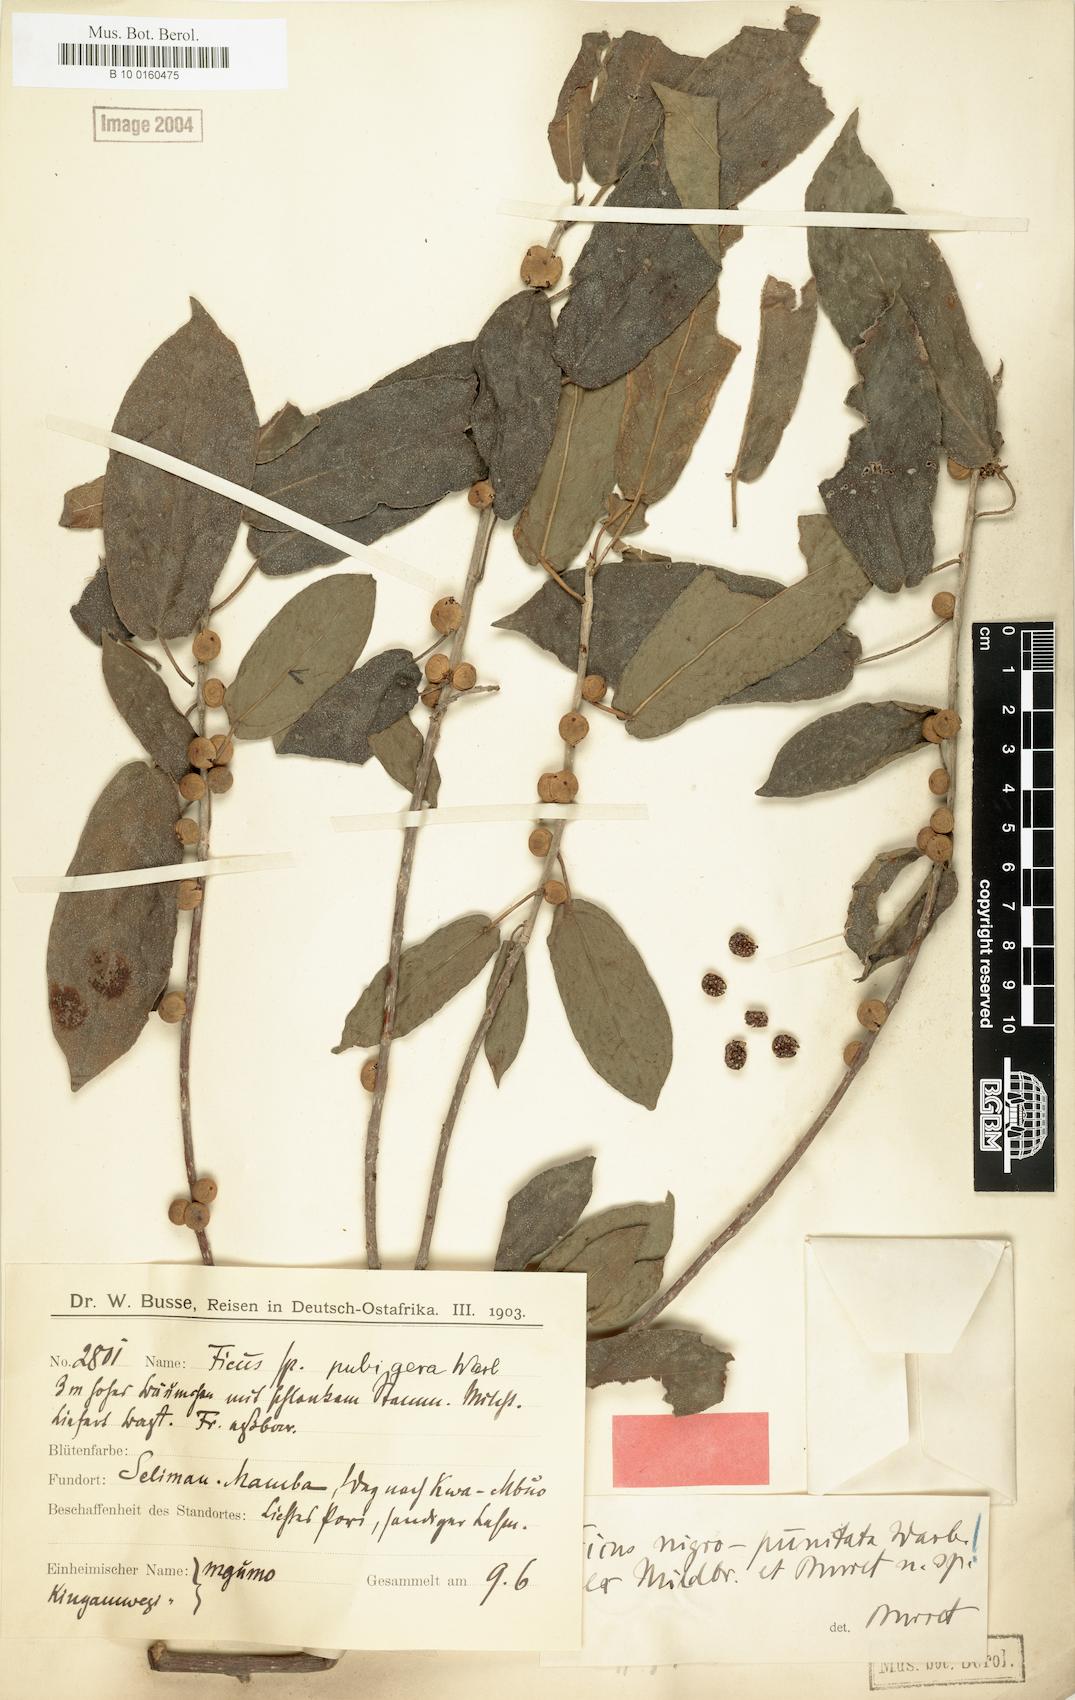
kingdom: Plantae
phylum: Tracheophyta
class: Magnoliopsida
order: Rosales
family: Moraceae
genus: Ficus
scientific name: Ficus nigropunctata
